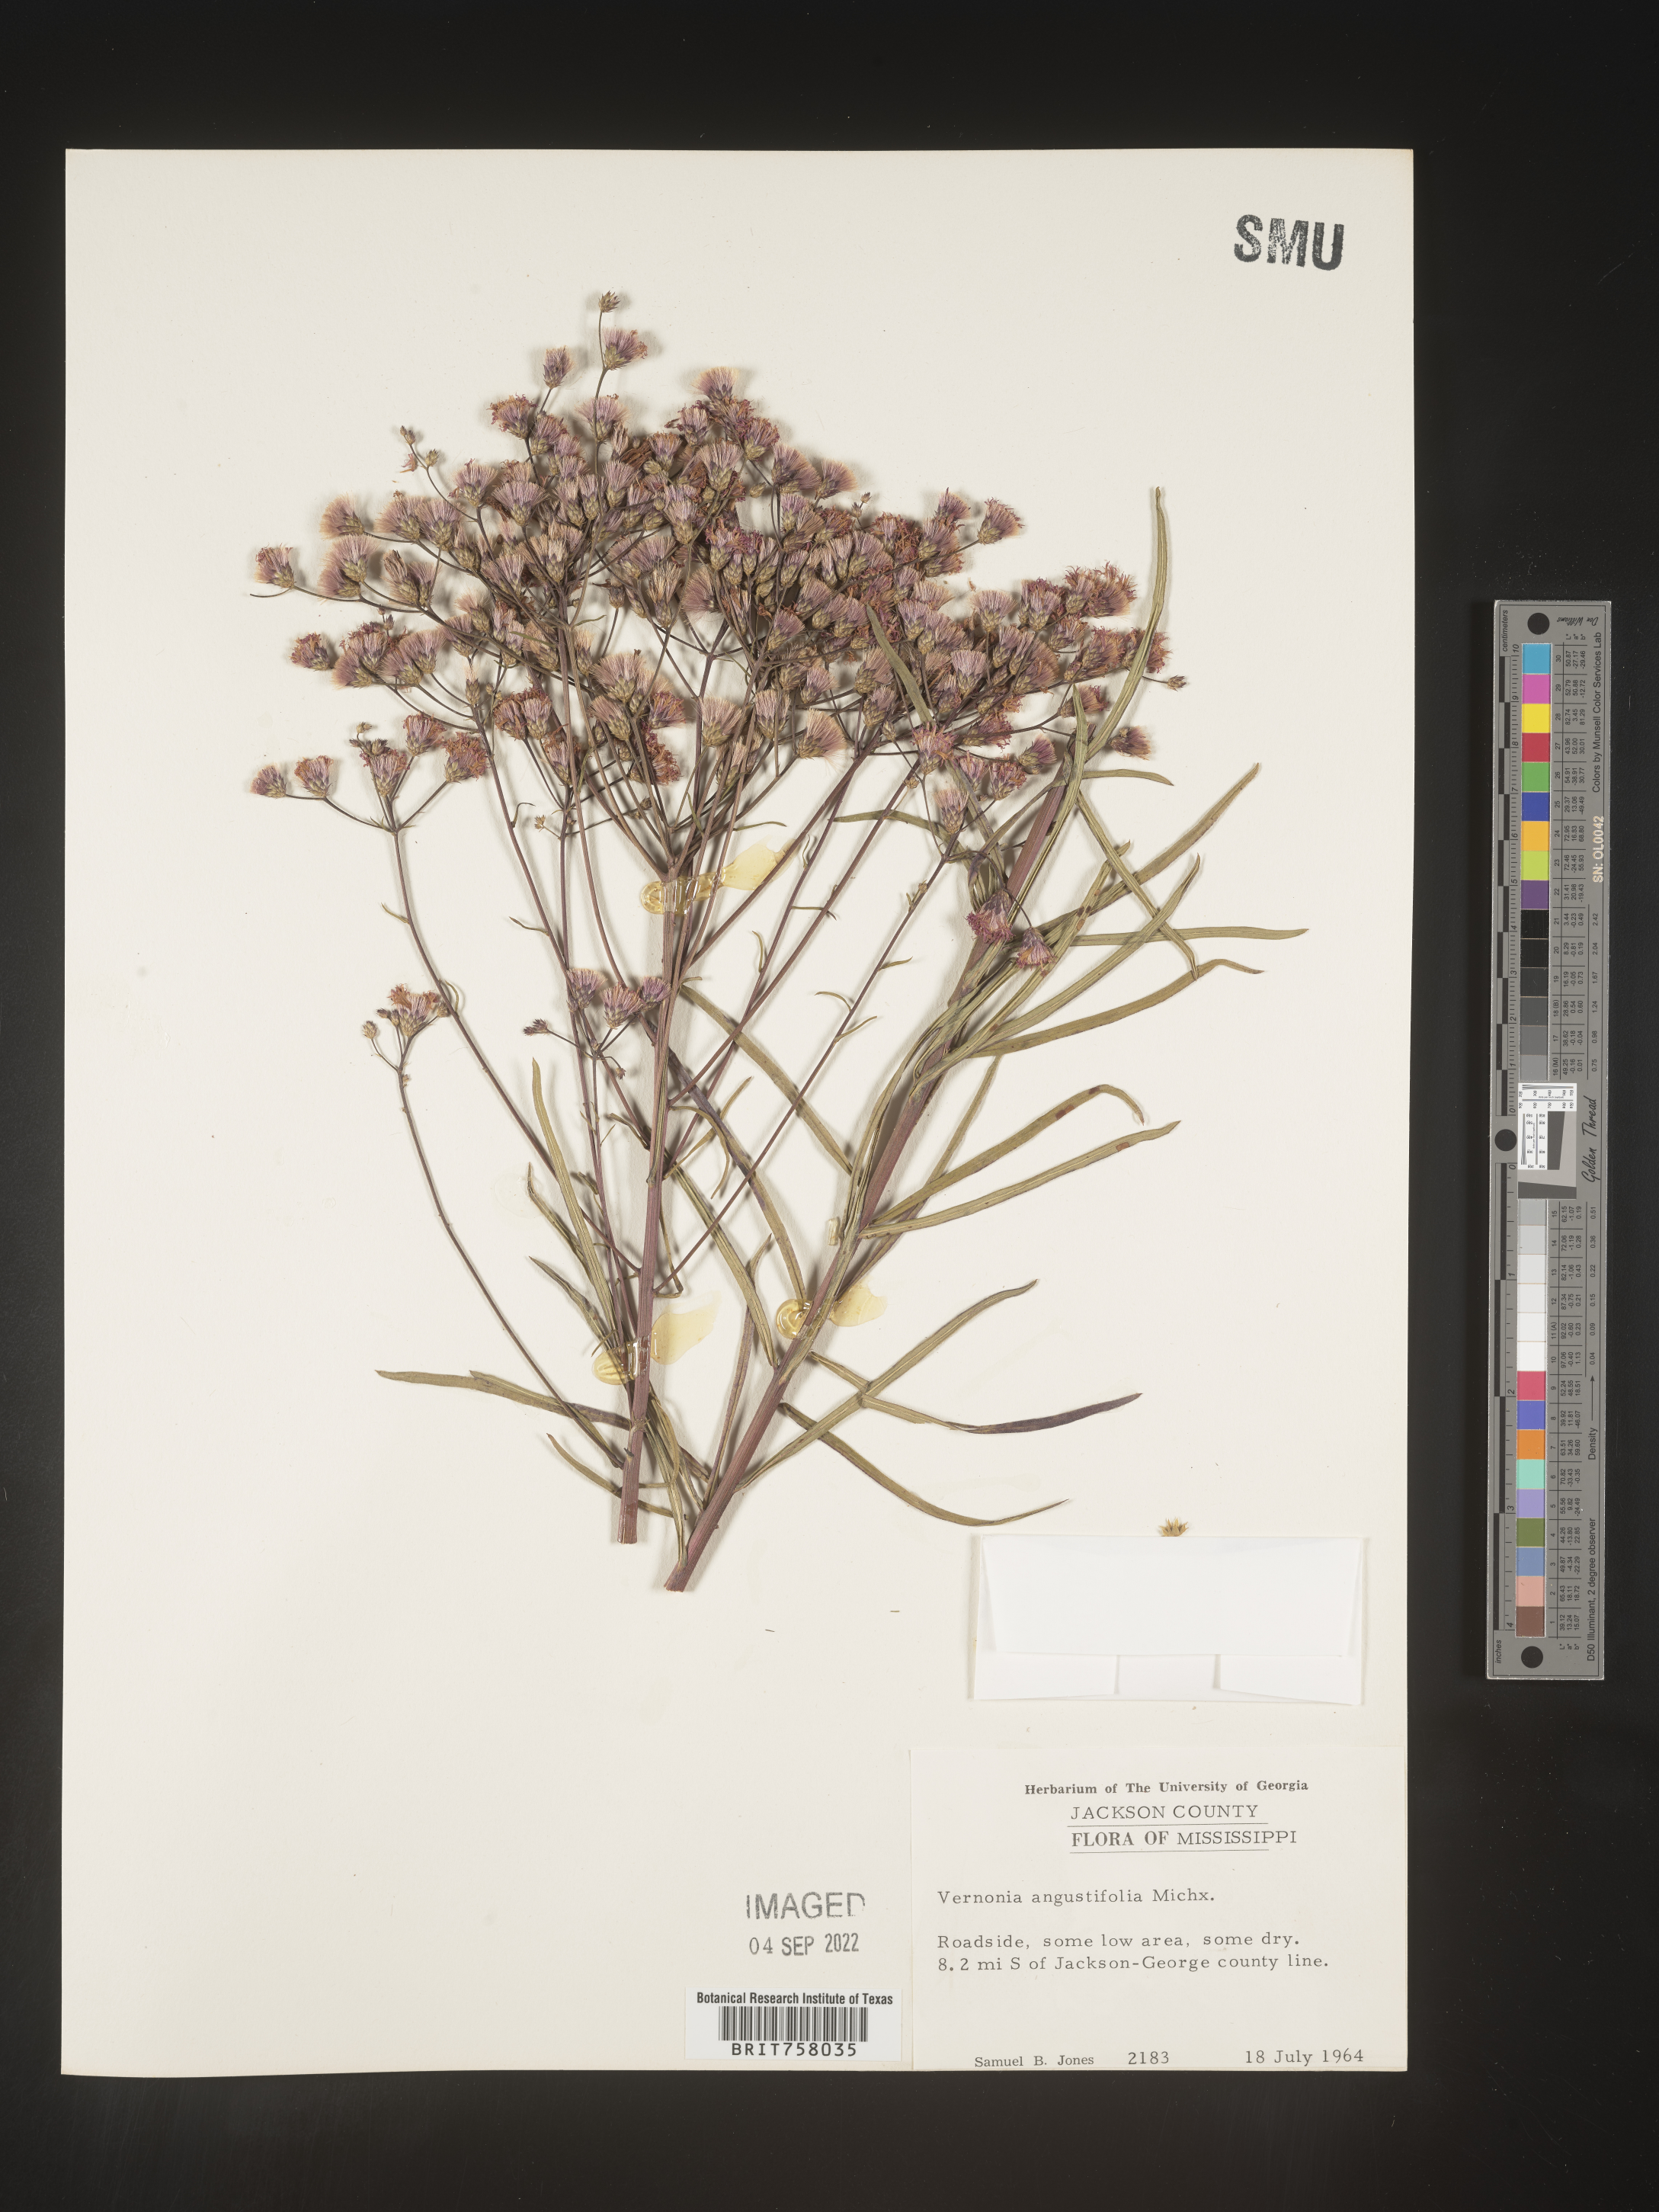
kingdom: Plantae
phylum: Tracheophyta
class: Magnoliopsida
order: Asterales
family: Asteraceae
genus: Vernonia
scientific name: Vernonia angustifolia
